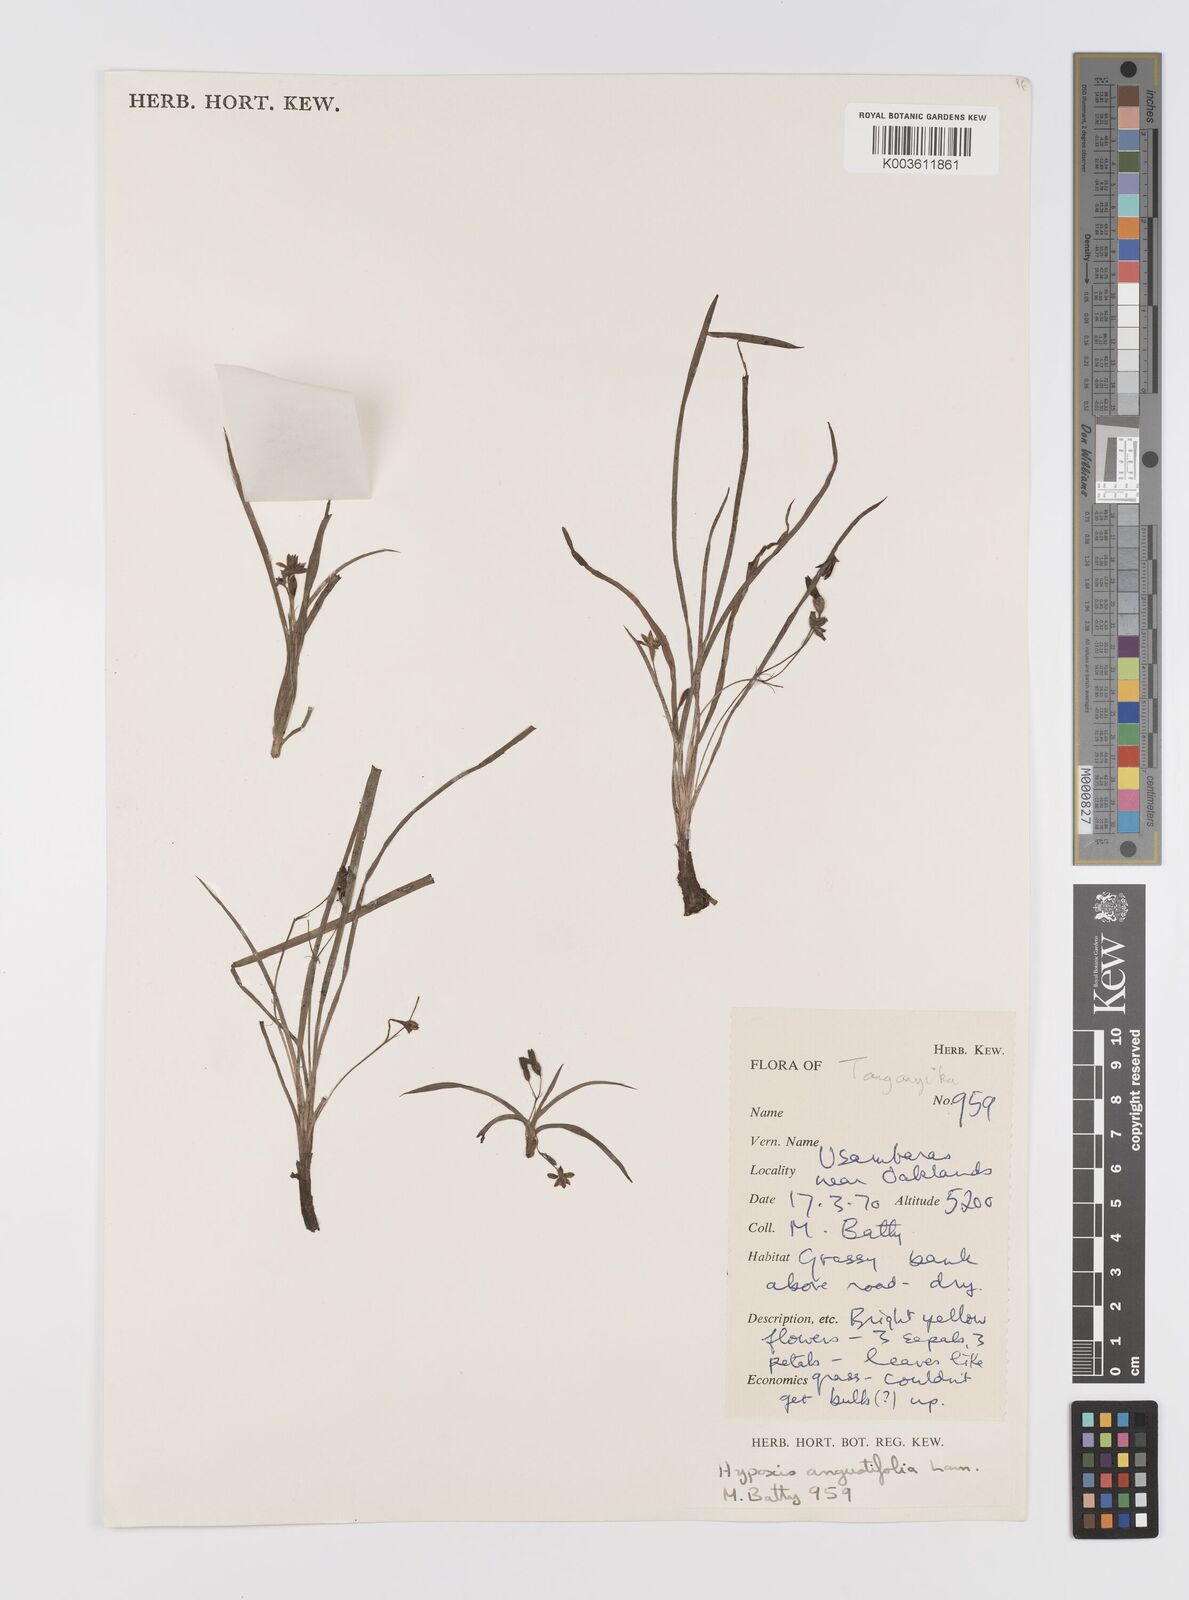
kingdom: Plantae
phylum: Tracheophyta
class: Liliopsida
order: Asparagales
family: Hypoxidaceae
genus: Hypoxis
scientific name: Hypoxis angustifolia
